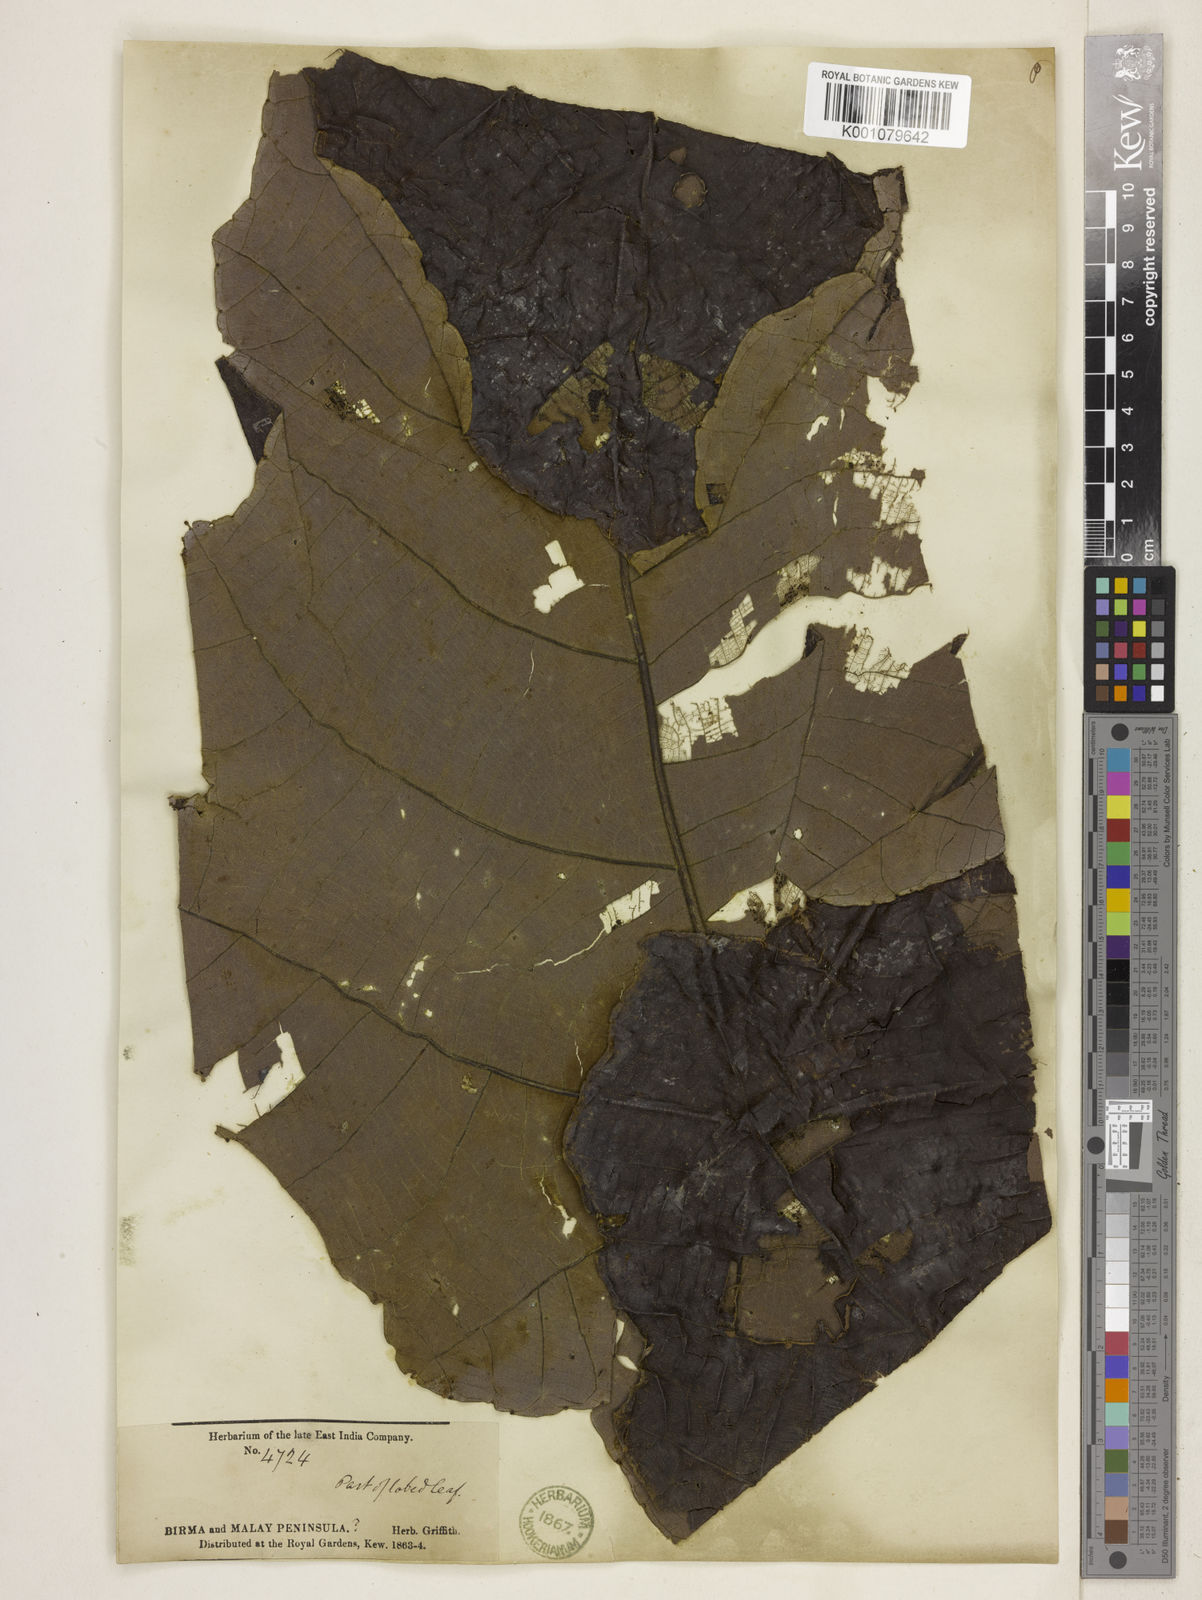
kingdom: Plantae
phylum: Tracheophyta
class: Magnoliopsida
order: Malpighiales
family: Euphorbiaceae
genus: Macaranga
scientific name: Macaranga
